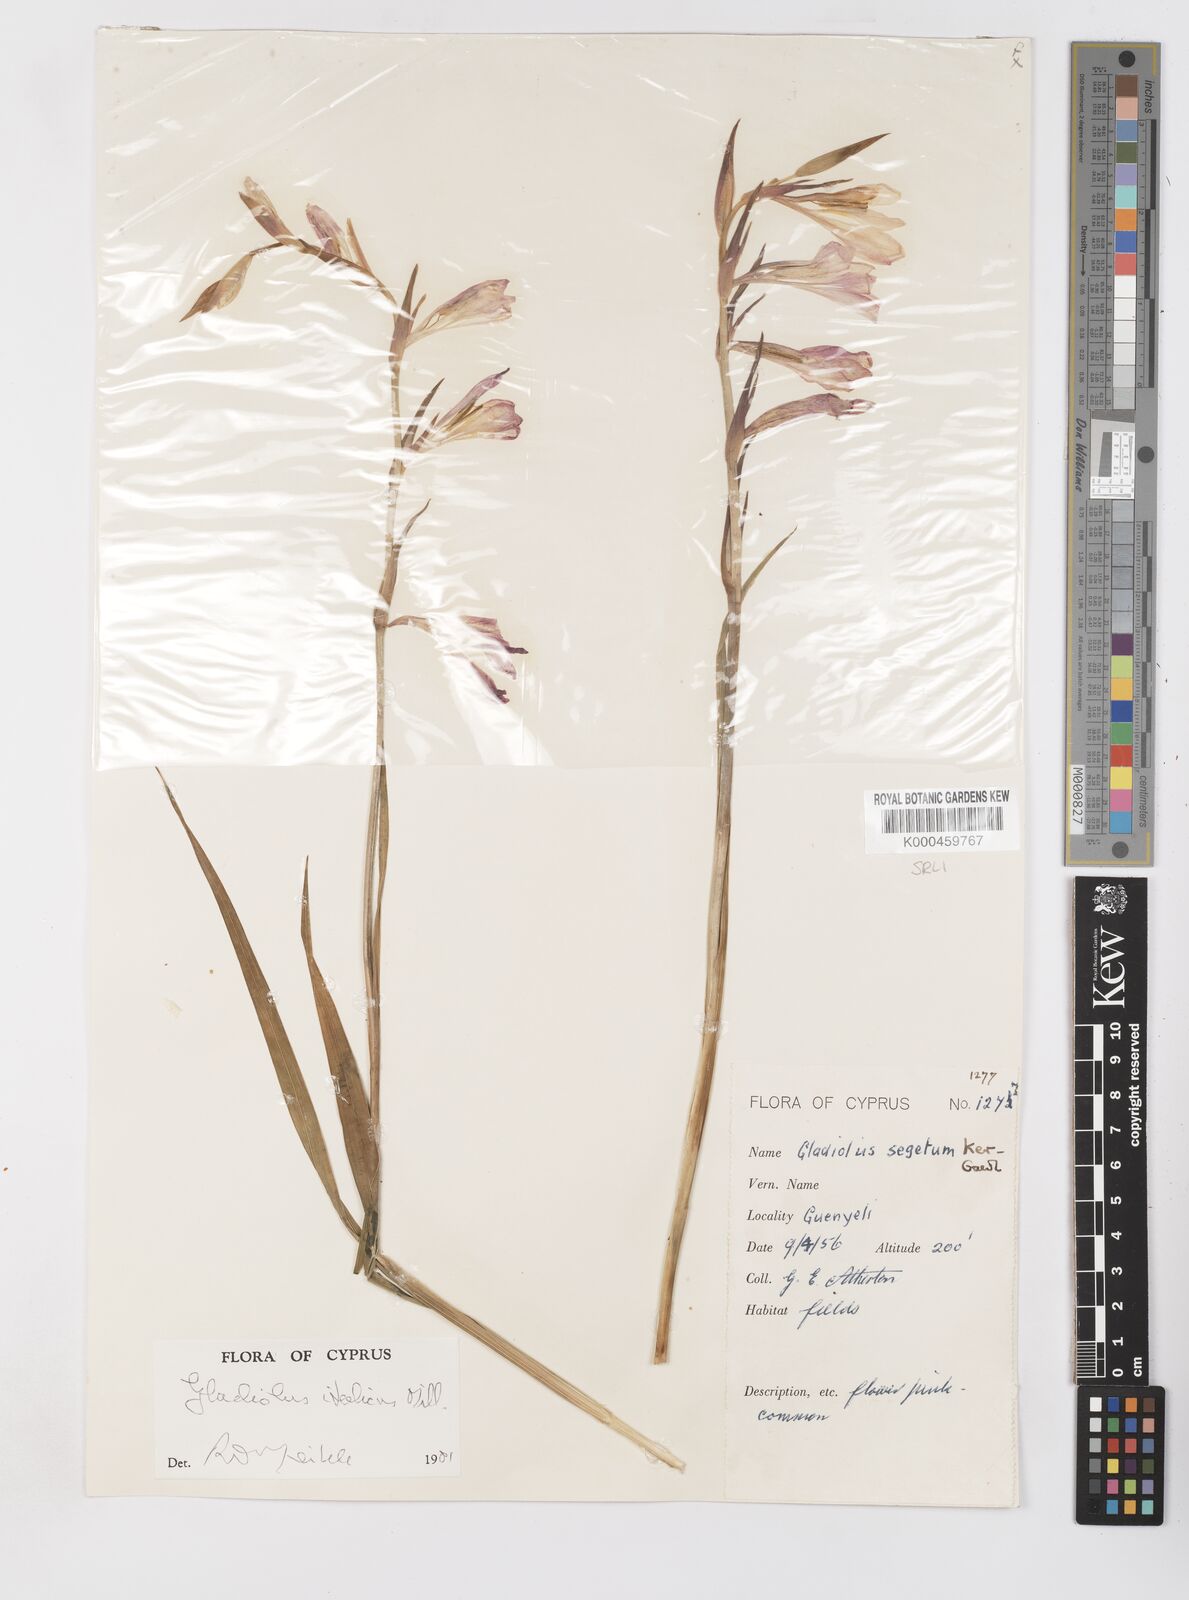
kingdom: Plantae
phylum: Tracheophyta
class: Liliopsida
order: Asparagales
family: Iridaceae
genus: Gladiolus
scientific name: Gladiolus italicus
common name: Field gladiolus
